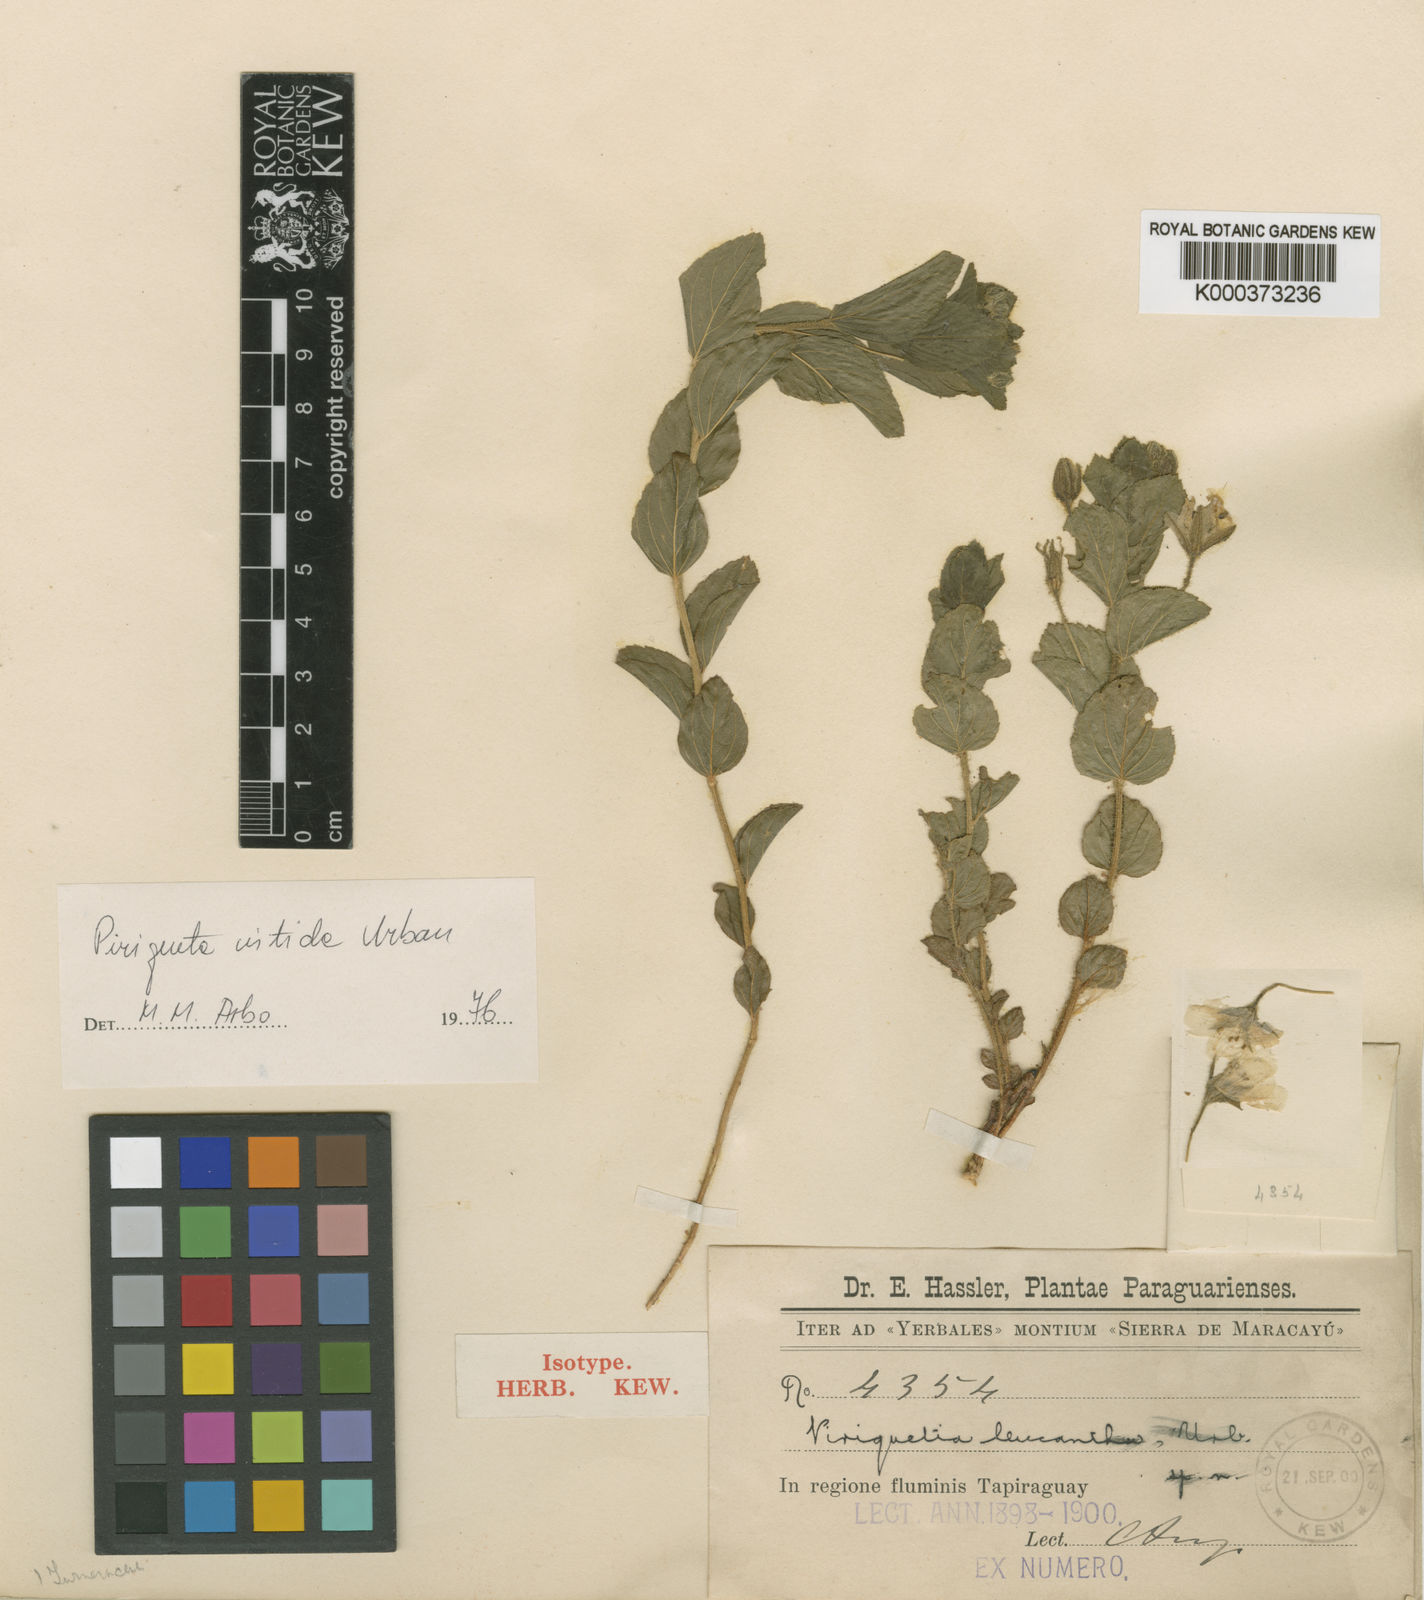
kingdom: Plantae
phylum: Tracheophyta
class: Magnoliopsida
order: Malpighiales
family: Turneraceae
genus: Piriqueta
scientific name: Piriqueta nitida
